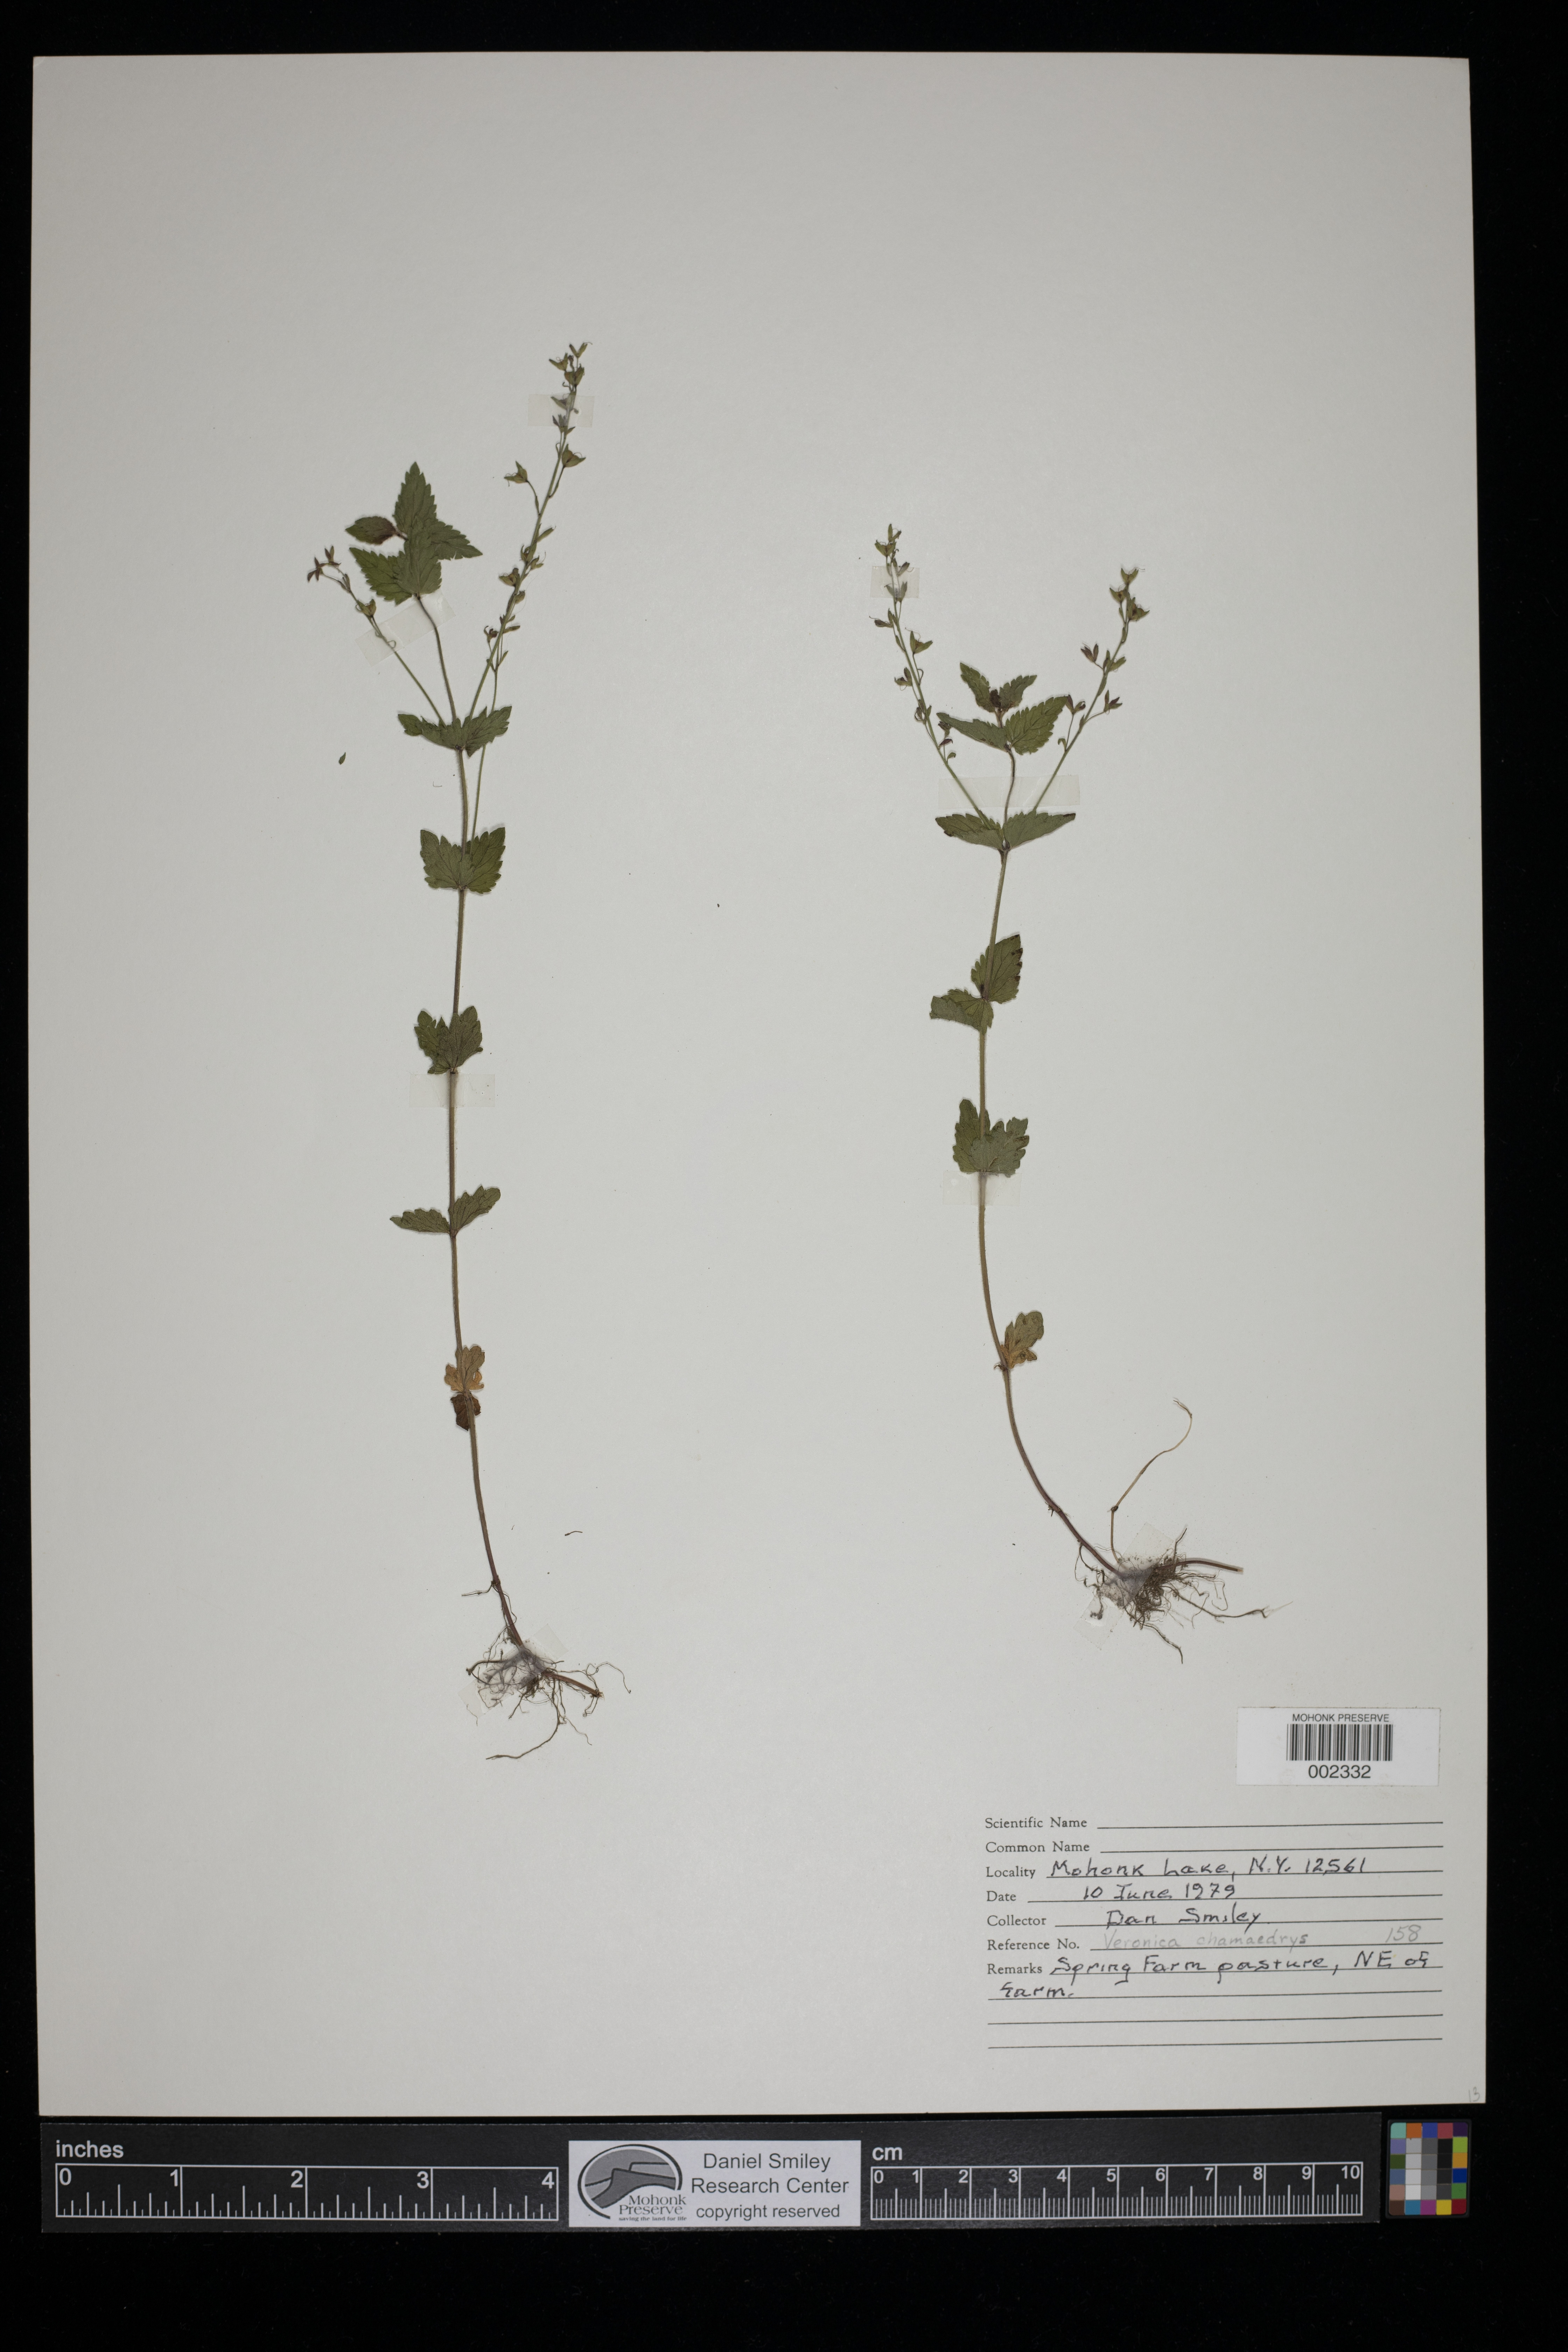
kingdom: Plantae
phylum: Tracheophyta
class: Magnoliopsida
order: Lamiales
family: Plantaginaceae
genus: Veronica
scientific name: Veronica chamaedrys
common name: Germander speedwell
